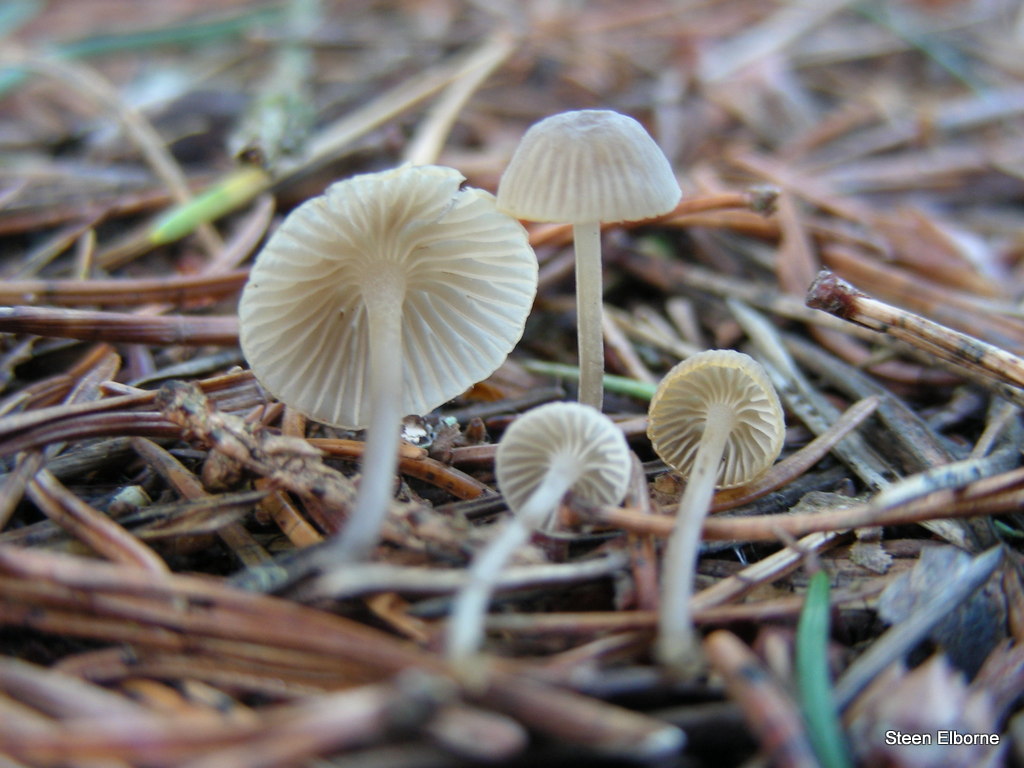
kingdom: Fungi
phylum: Basidiomycota
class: Agaricomycetes
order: Agaricales
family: Mycenaceae
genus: Mycena
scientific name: Mycena cinerella
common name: mel-huesvamp
